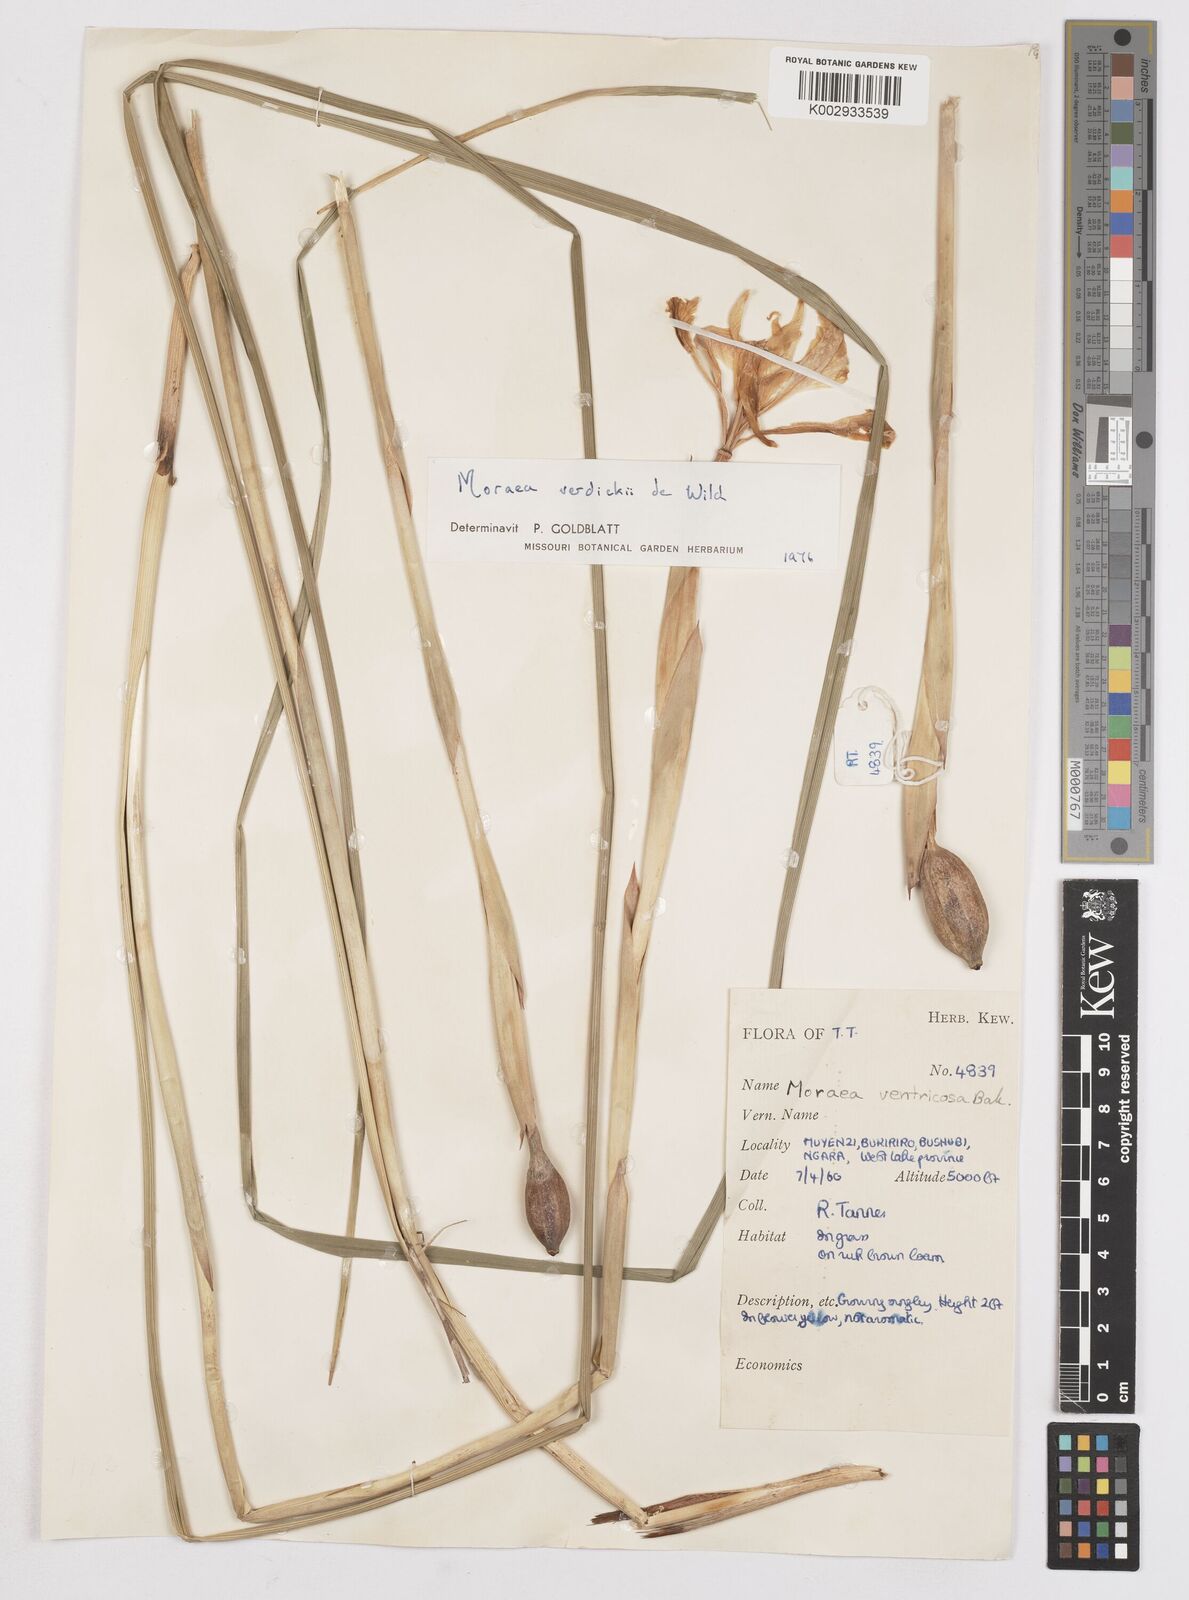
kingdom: Plantae
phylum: Tracheophyta
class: Liliopsida
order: Asparagales
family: Iridaceae
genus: Moraea
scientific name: Moraea verdickii
